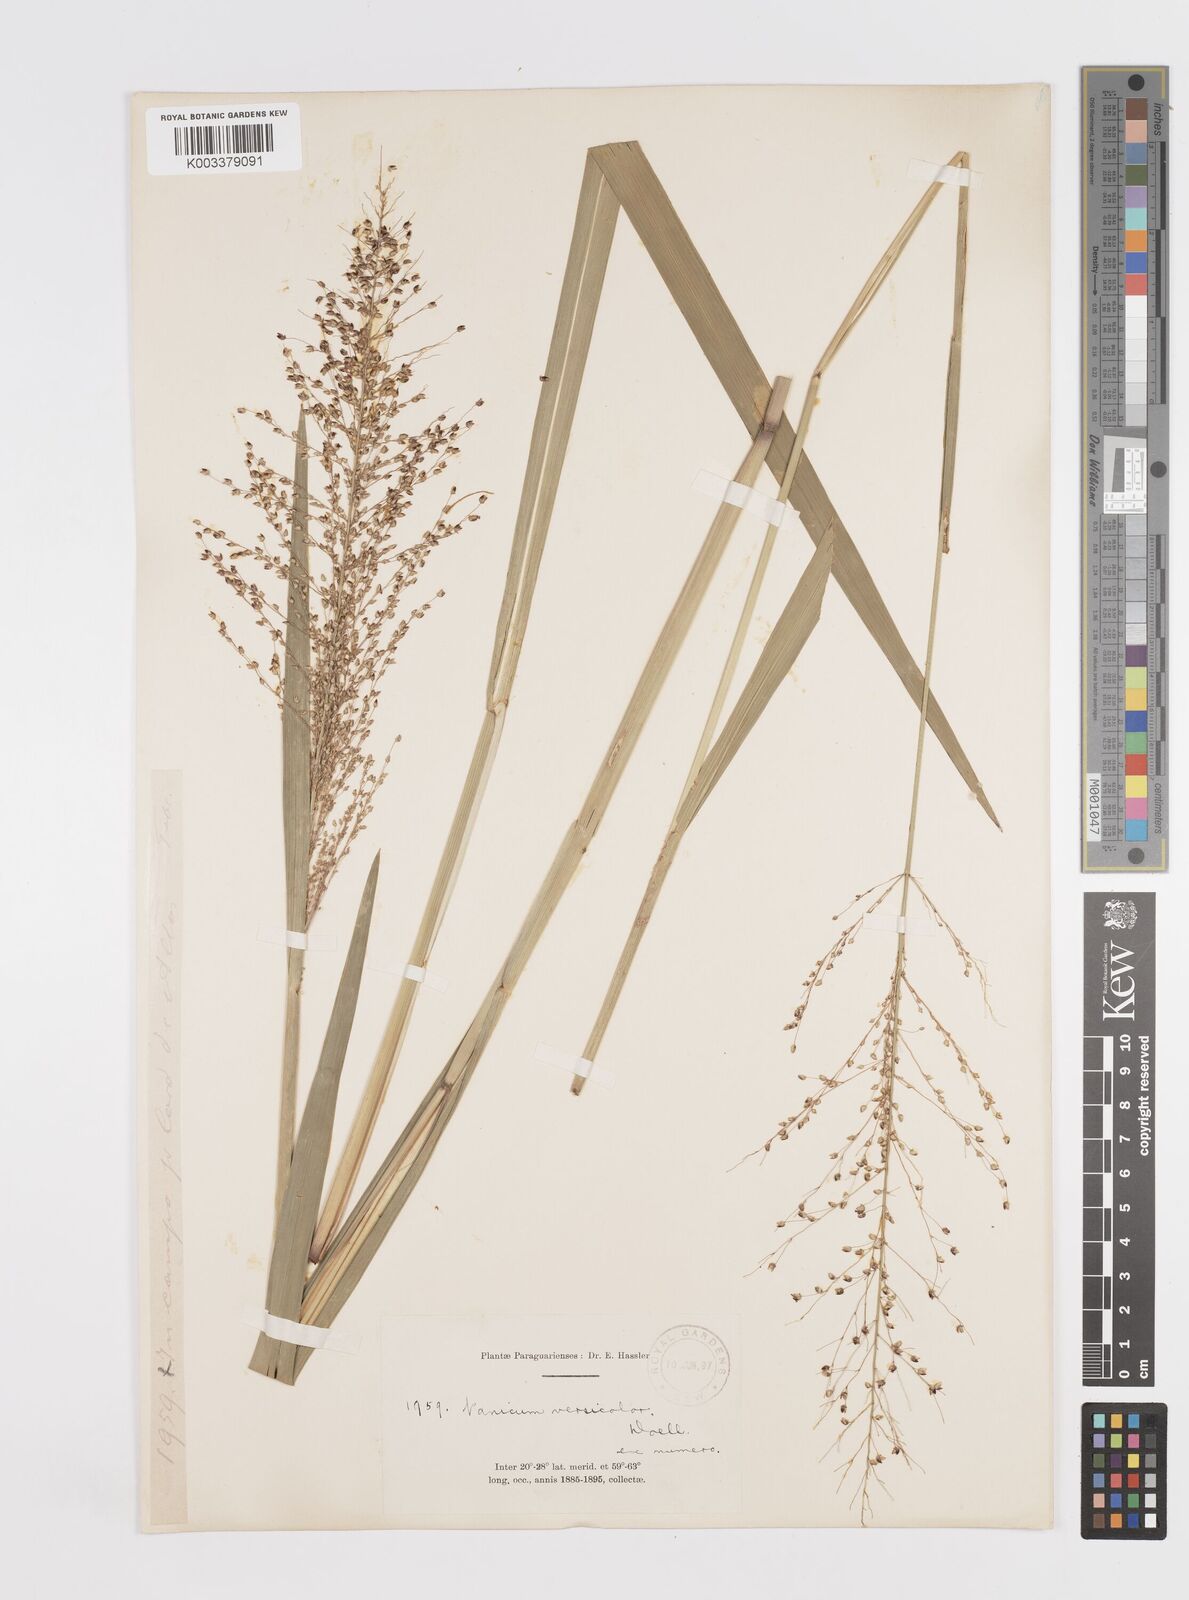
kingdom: Plantae
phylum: Tracheophyta
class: Liliopsida
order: Poales
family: Poaceae
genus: Otachyrium
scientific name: Otachyrium versicolor
